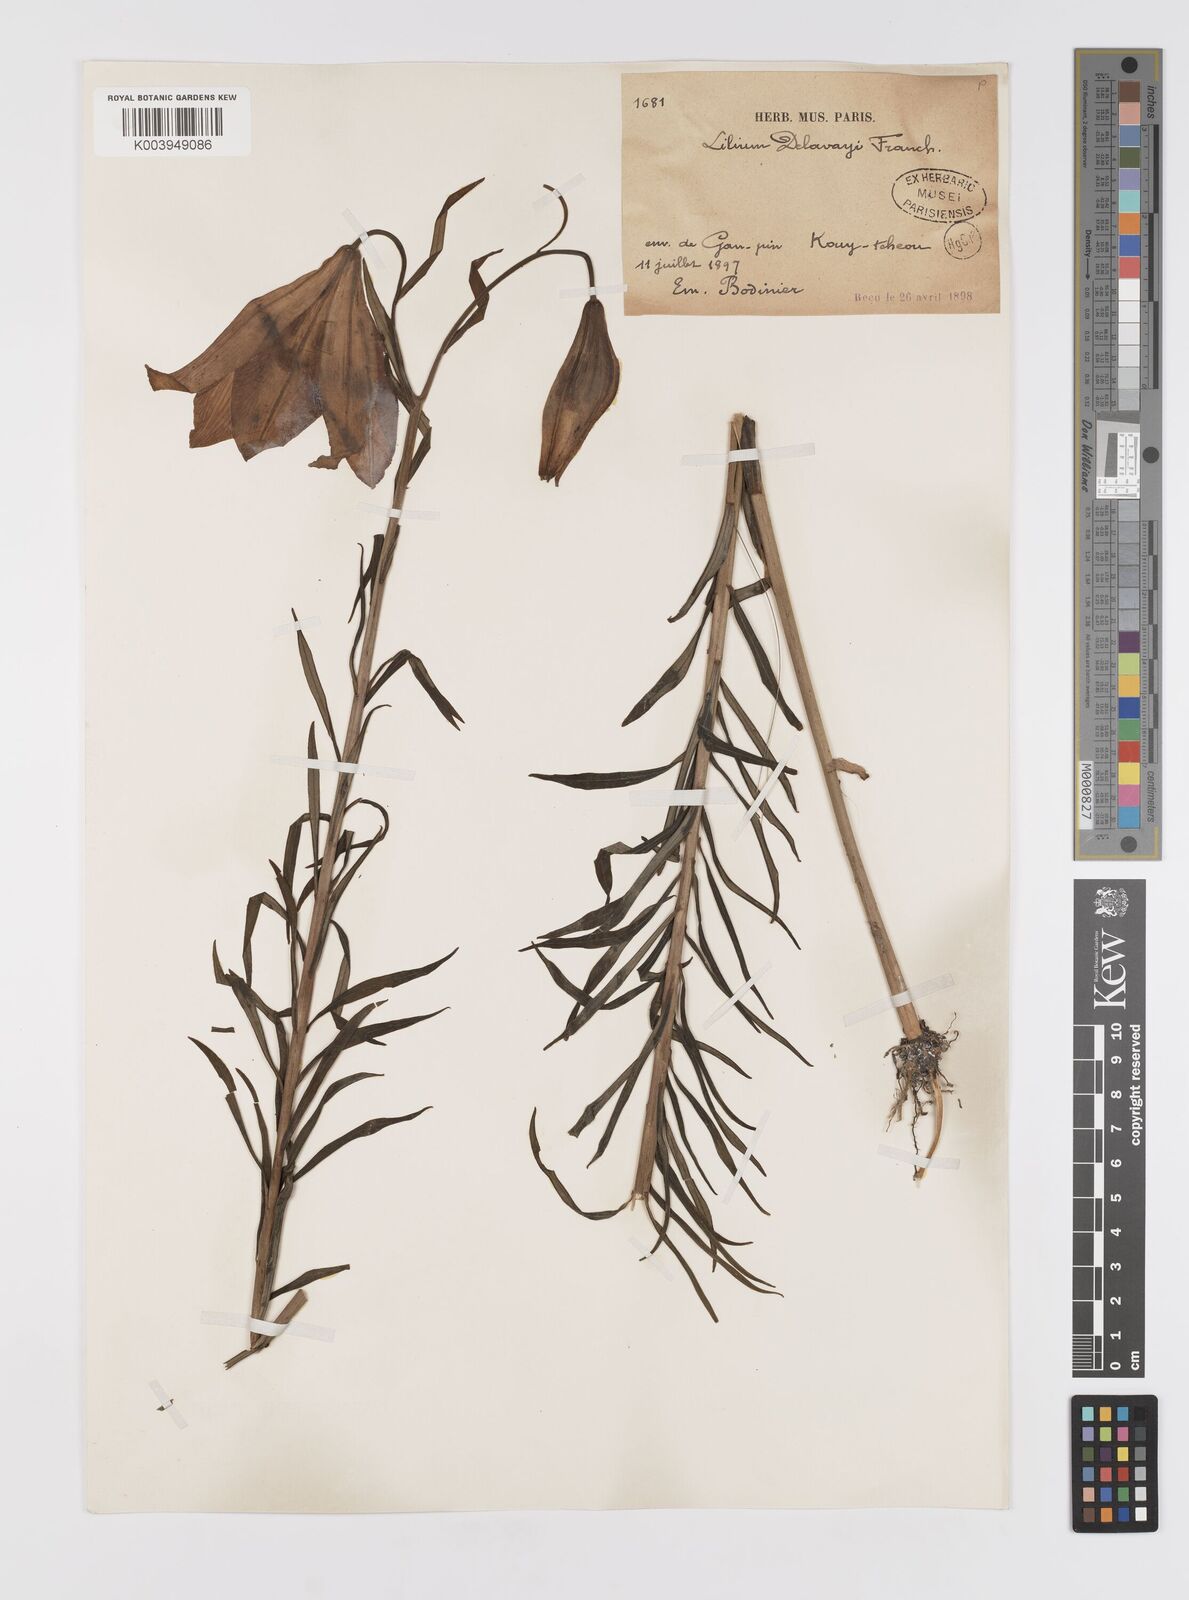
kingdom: Plantae
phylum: Tracheophyta
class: Liliopsida
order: Liliales
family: Liliaceae
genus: Lilium
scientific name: Lilium bakerianum
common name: Baker's lily
